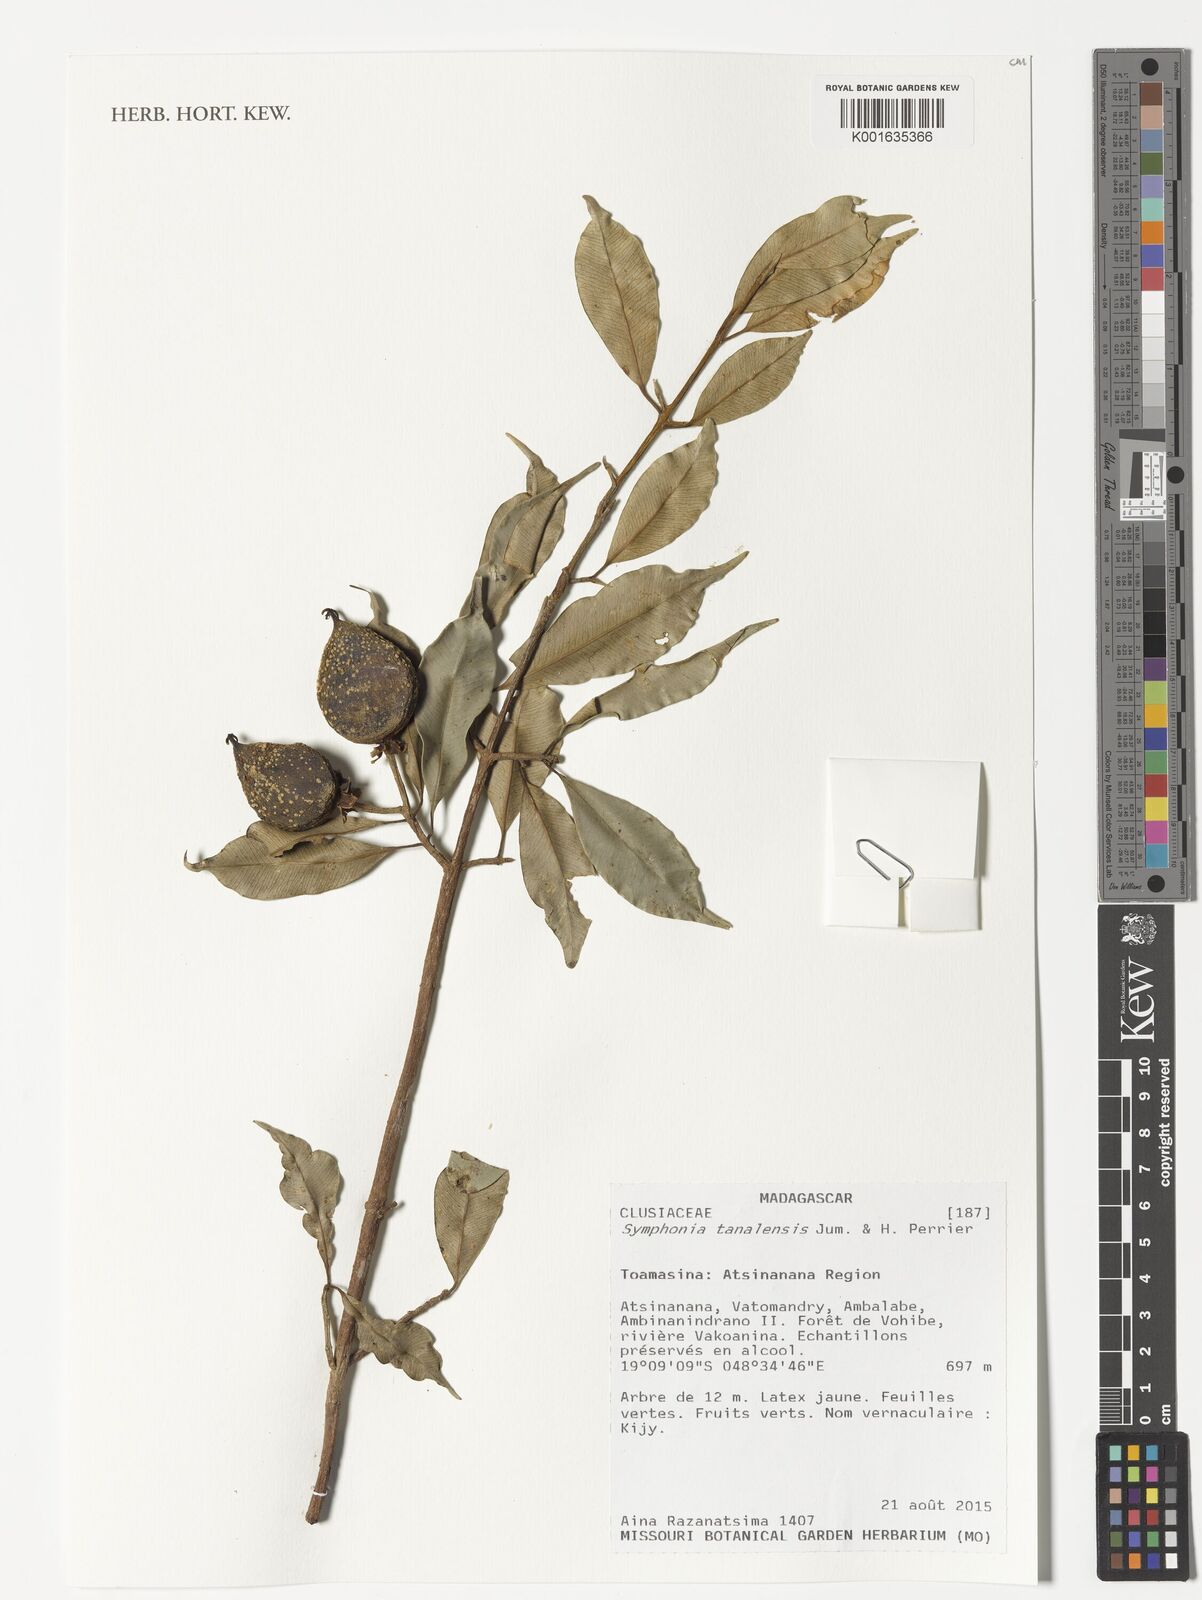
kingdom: Plantae
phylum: Tracheophyta
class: Magnoliopsida
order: Malpighiales
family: Clusiaceae
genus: Symphonia
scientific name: Symphonia tanalensis
